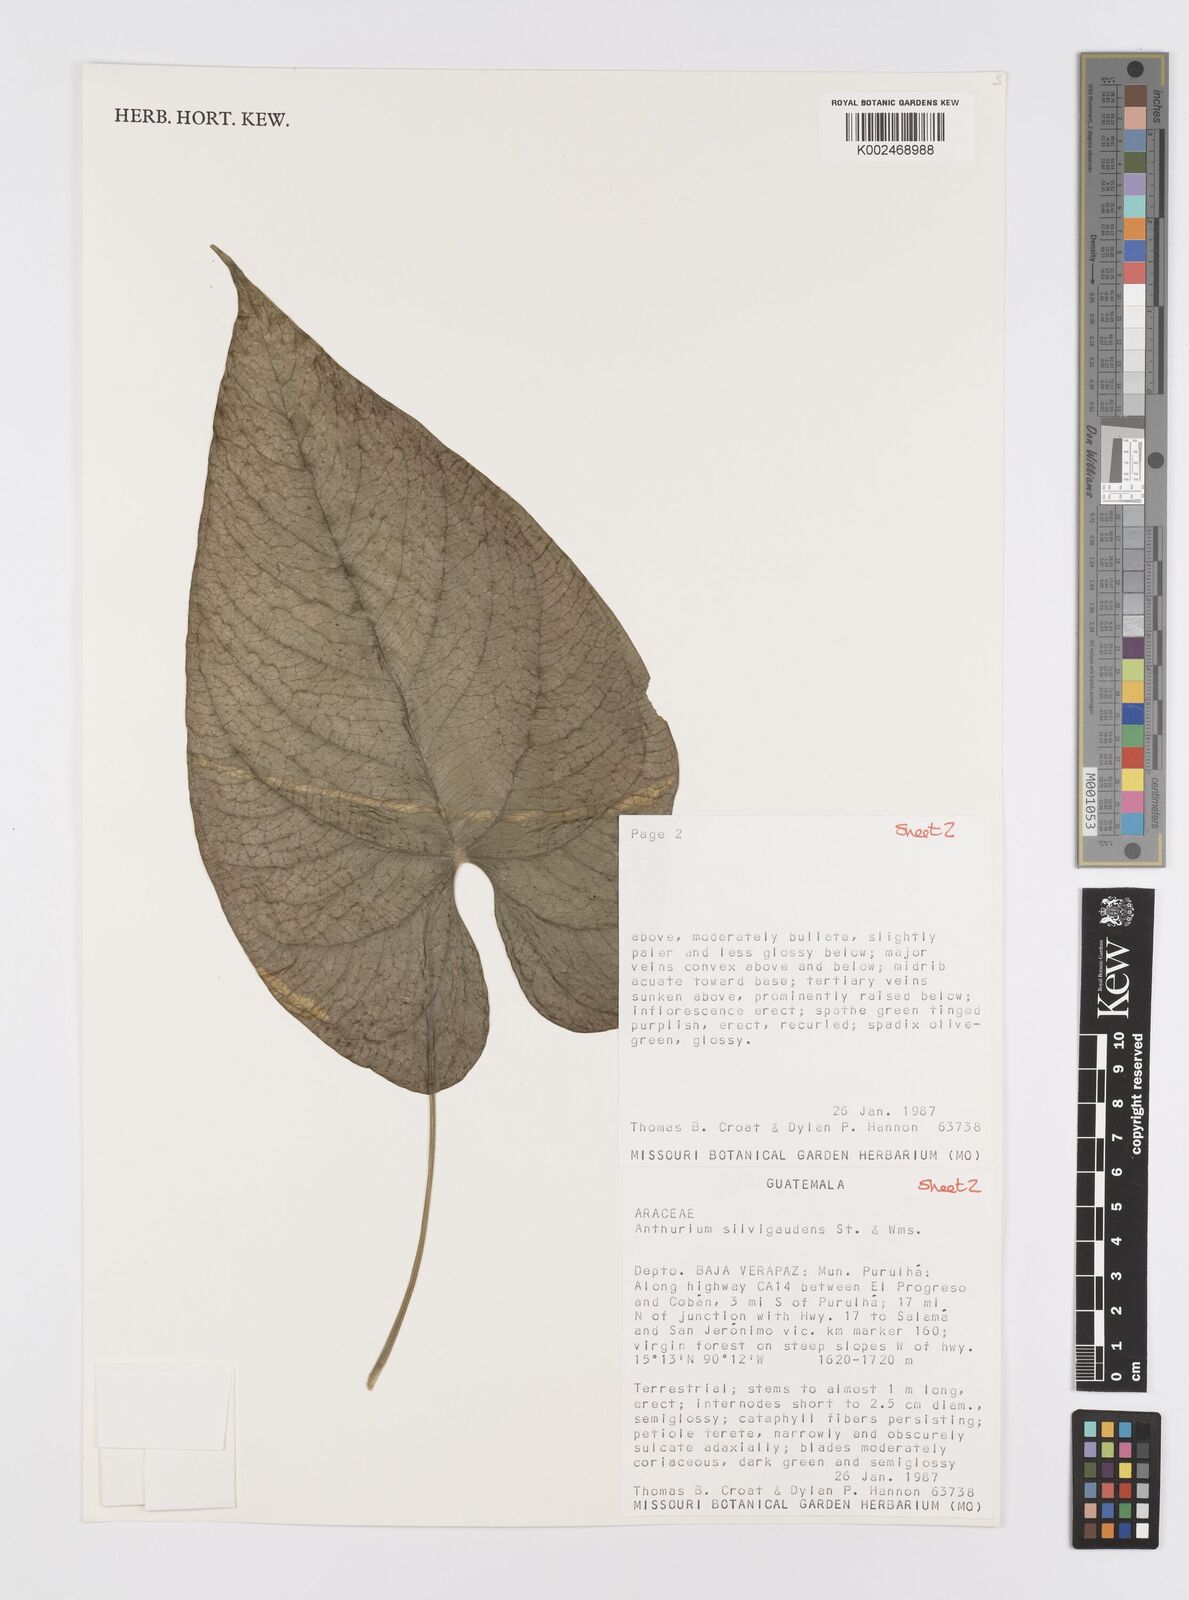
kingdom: Plantae
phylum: Tracheophyta
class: Liliopsida
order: Alismatales
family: Araceae
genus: Anthurium
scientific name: Anthurium silvigaudens
